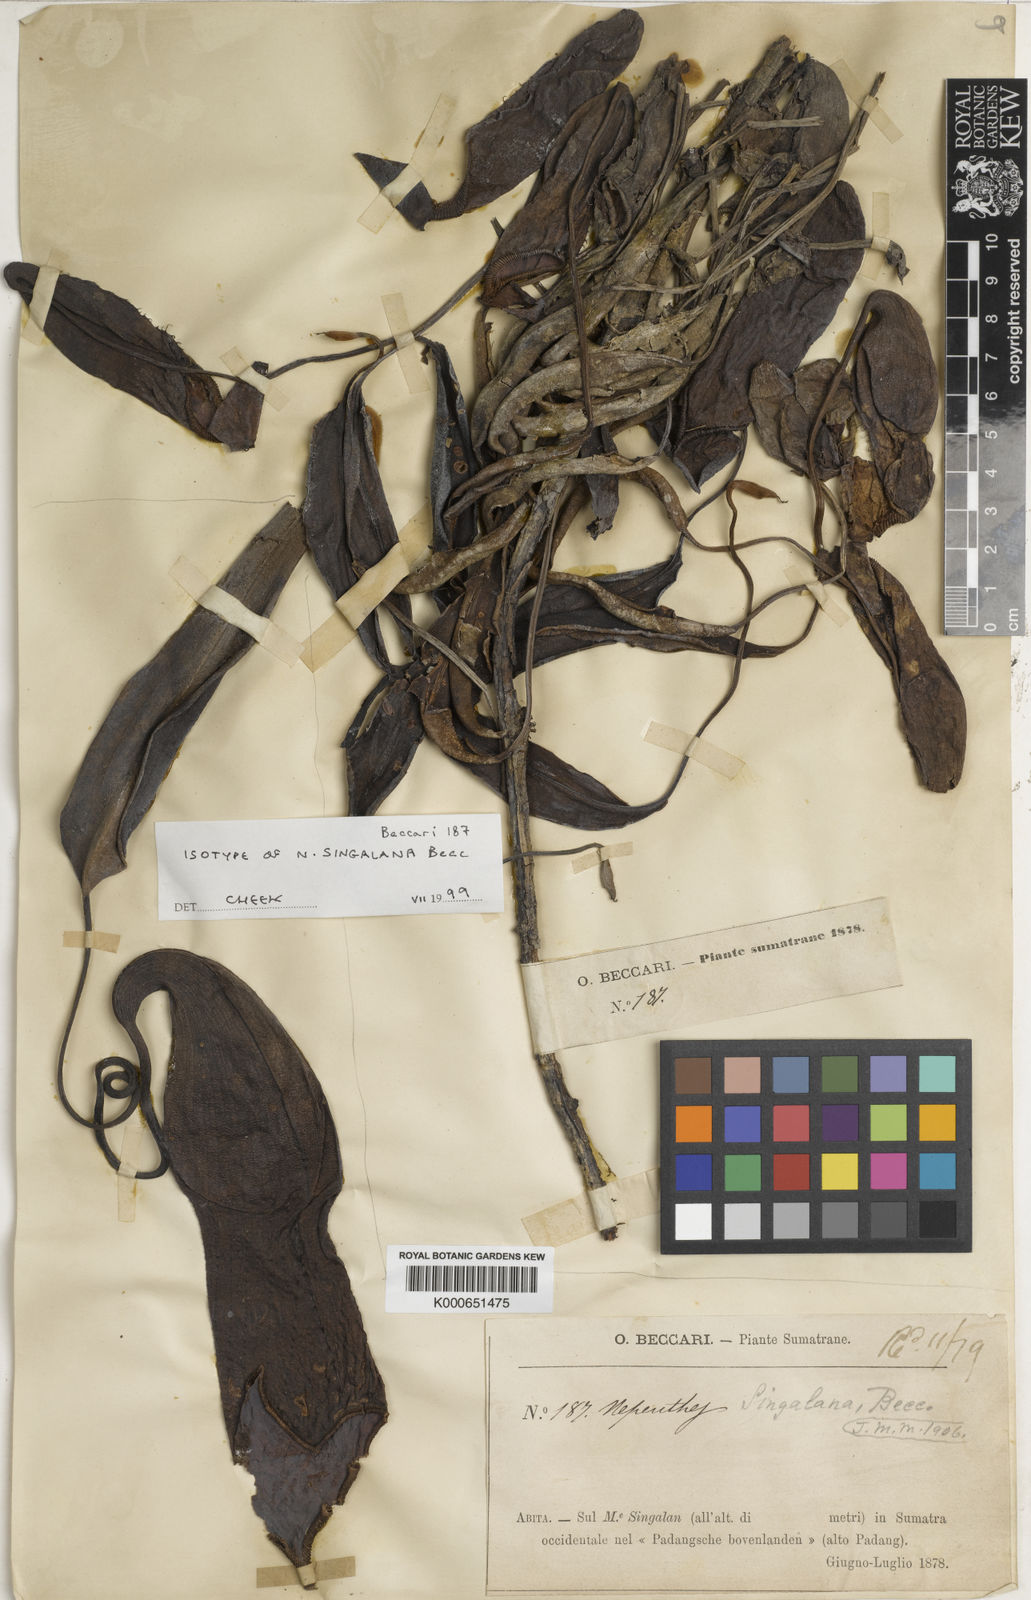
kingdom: Plantae
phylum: Tracheophyta
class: Magnoliopsida
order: Caryophyllales
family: Nepenthaceae
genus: Nepenthes
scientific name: Nepenthes singalana
